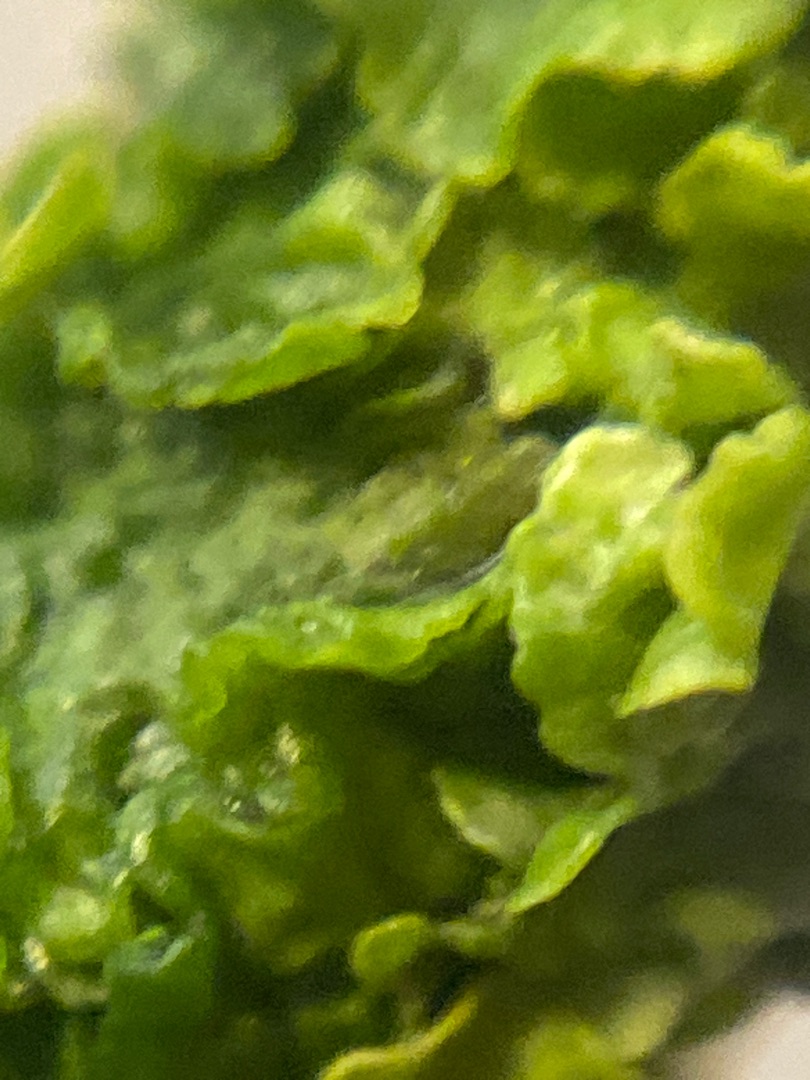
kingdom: Fungi
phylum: Ascomycota
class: Lecanoromycetes
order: Teloschistales
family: Teloschistaceae
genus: Xanthoria
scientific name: Xanthoria parietina
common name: Almindelig væggelav
